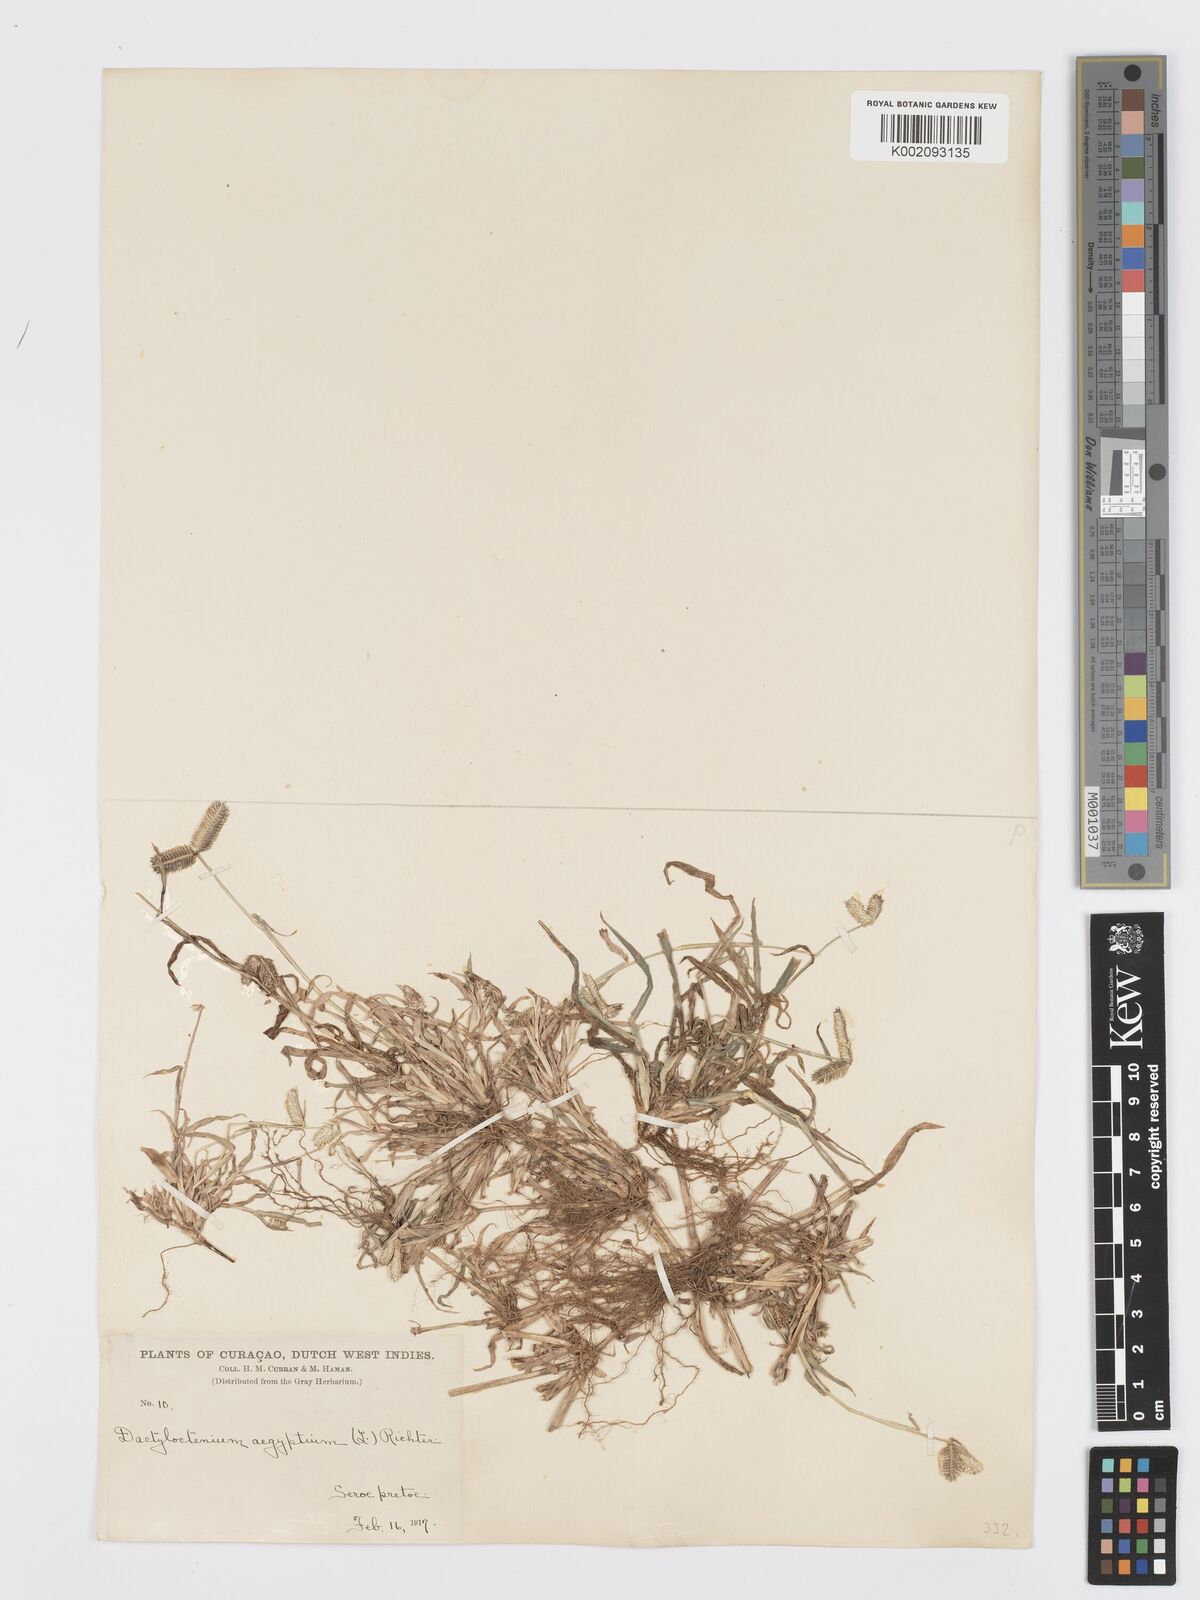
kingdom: Plantae
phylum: Tracheophyta
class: Liliopsida
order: Poales
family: Poaceae
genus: Dactyloctenium
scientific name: Dactyloctenium aegyptium
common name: Egyptian grass
